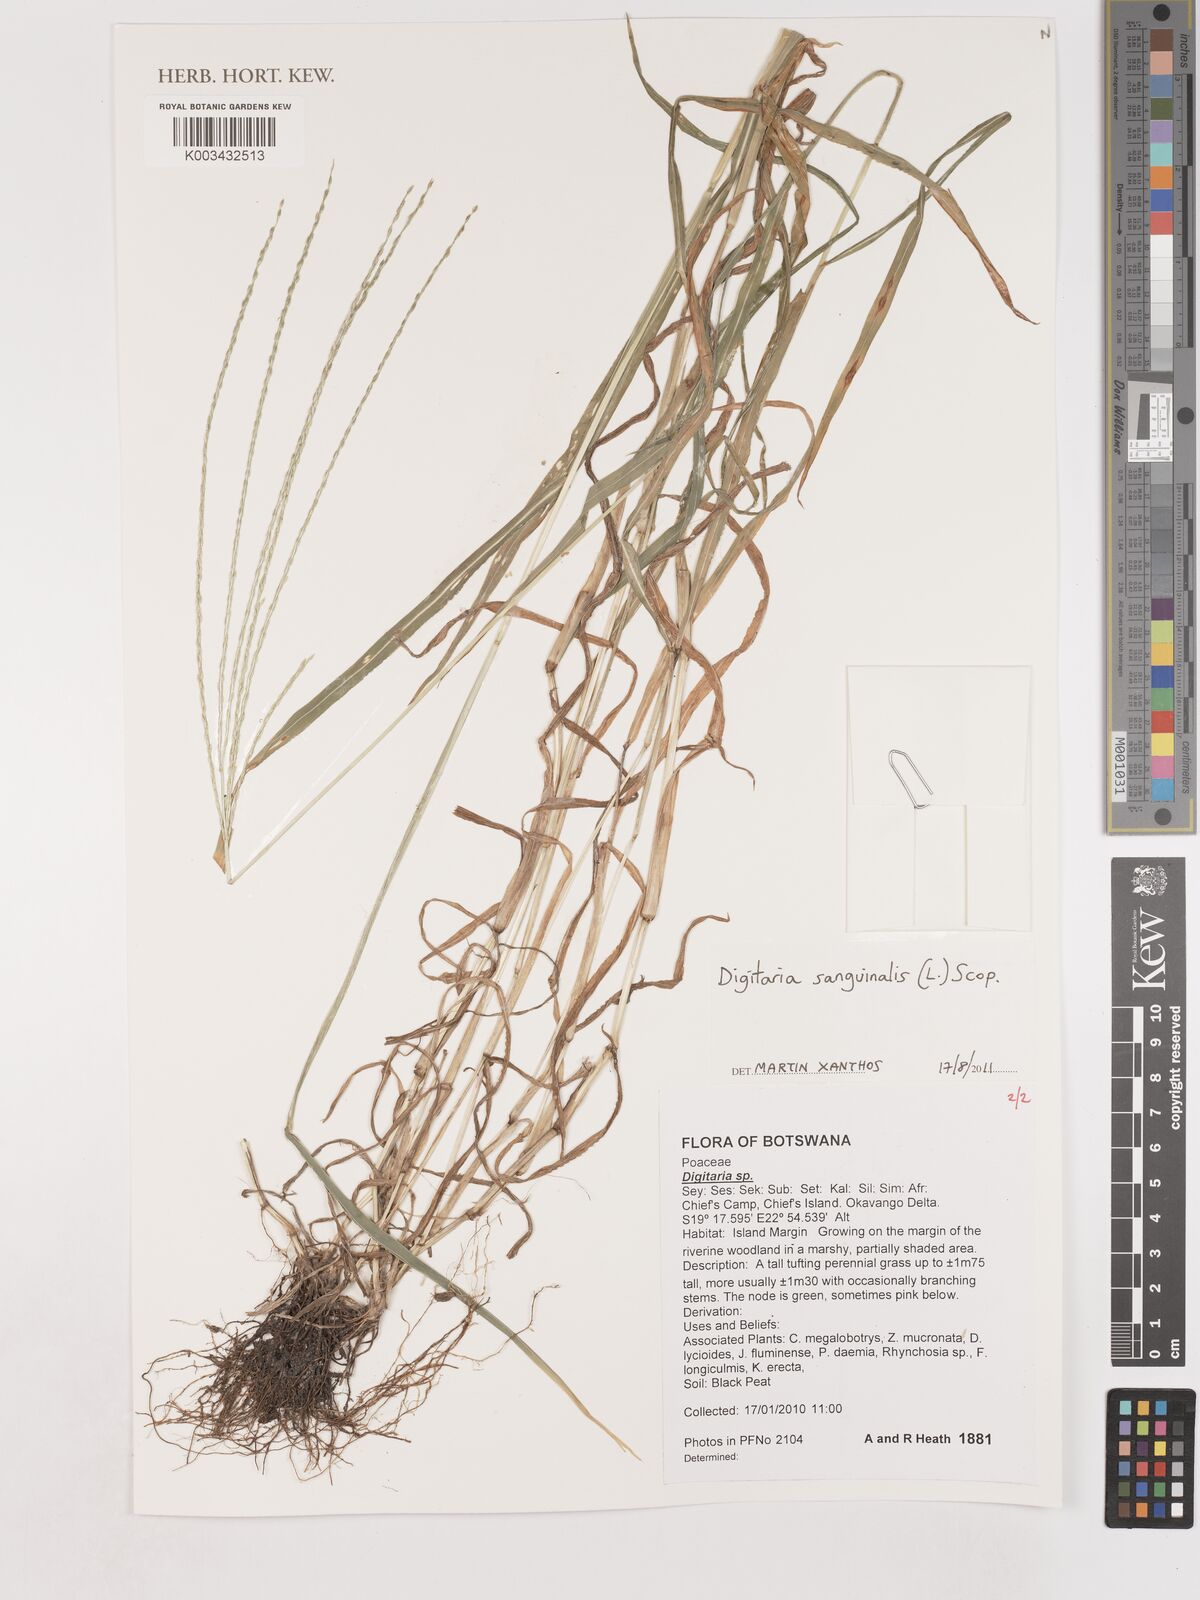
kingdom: Plantae
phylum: Tracheophyta
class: Liliopsida
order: Poales
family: Poaceae
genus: Digitaria
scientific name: Digitaria sanguinalis
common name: Hairy crabgrass
